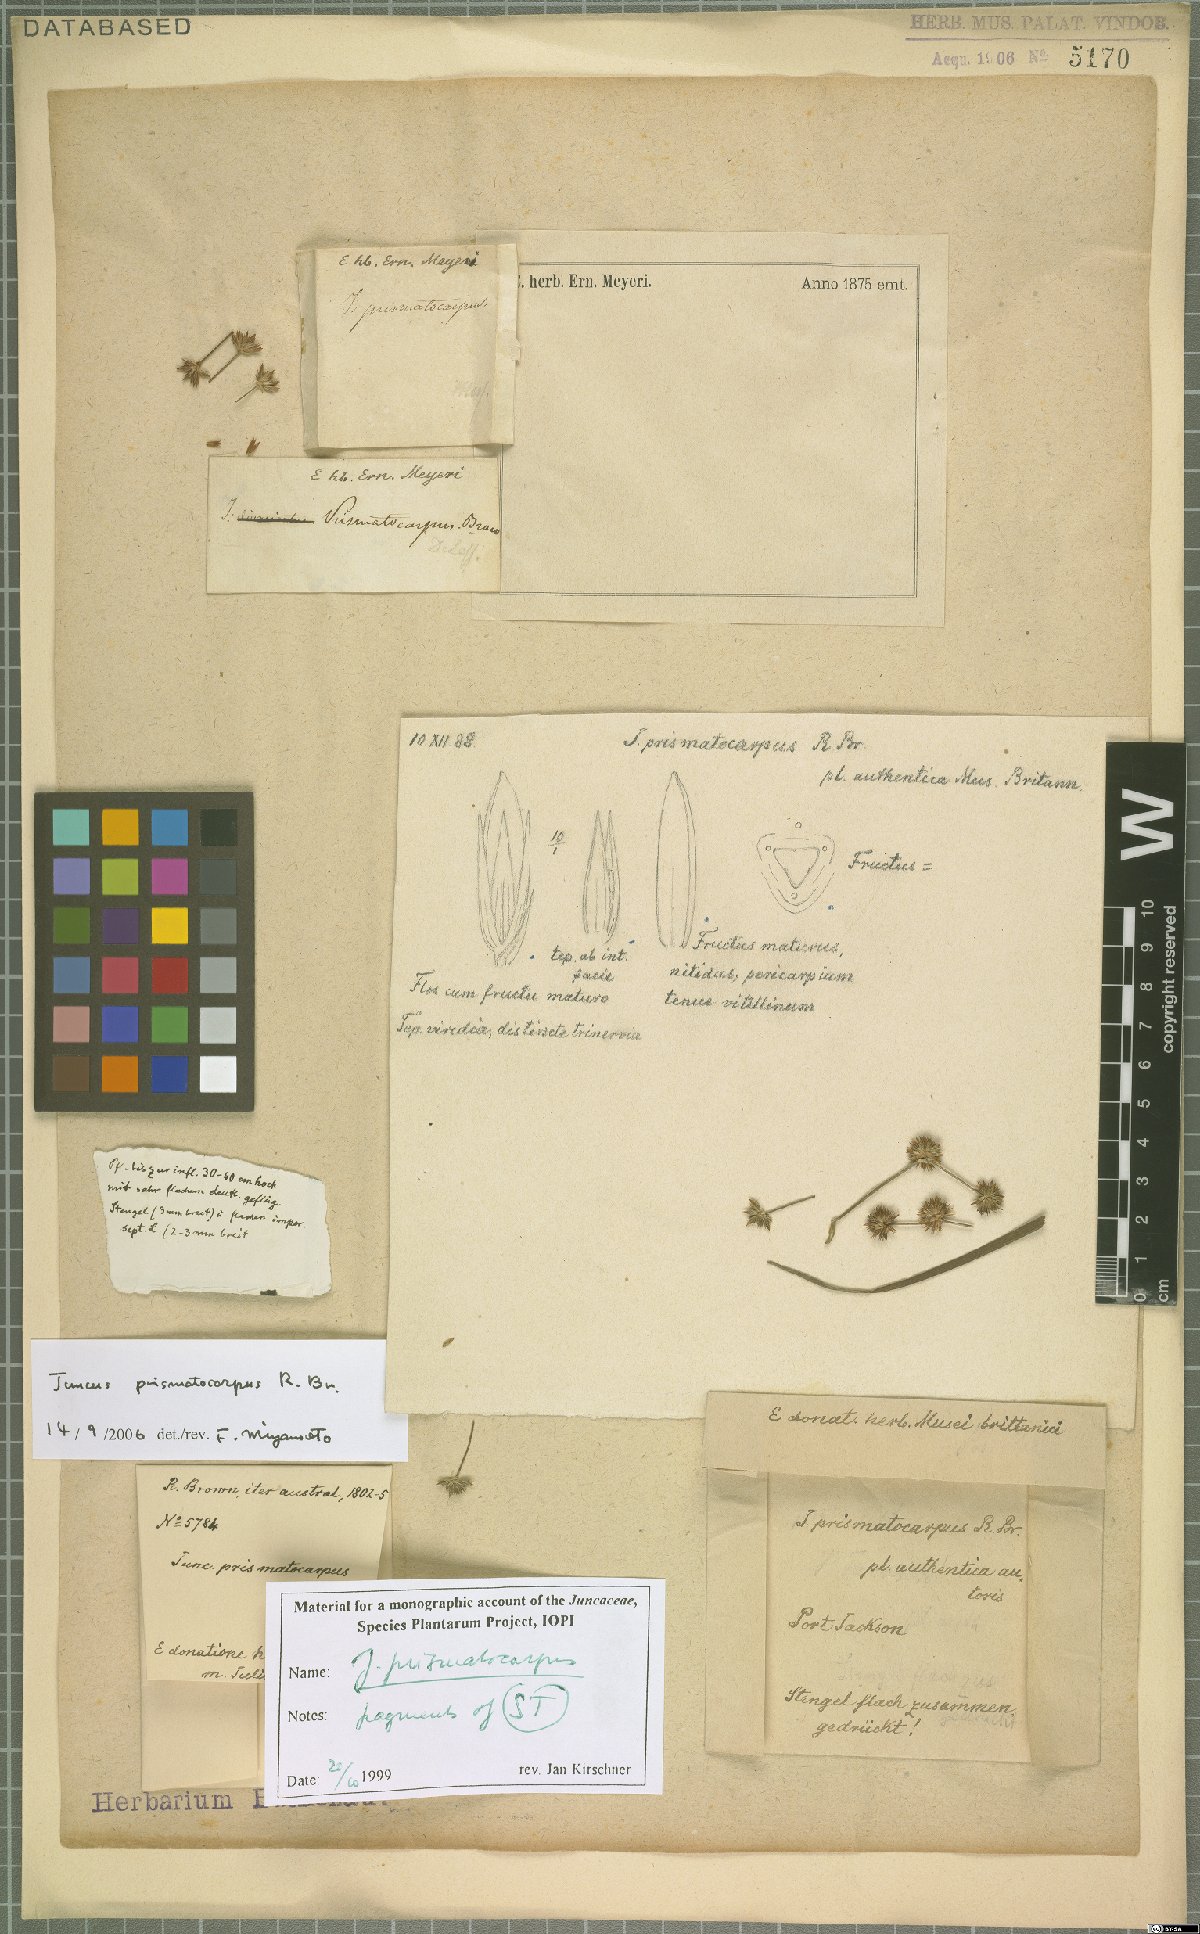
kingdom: Plantae
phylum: Tracheophyta
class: Liliopsida
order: Poales
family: Juncaceae
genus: Juncus
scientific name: Juncus prismatocarpus
